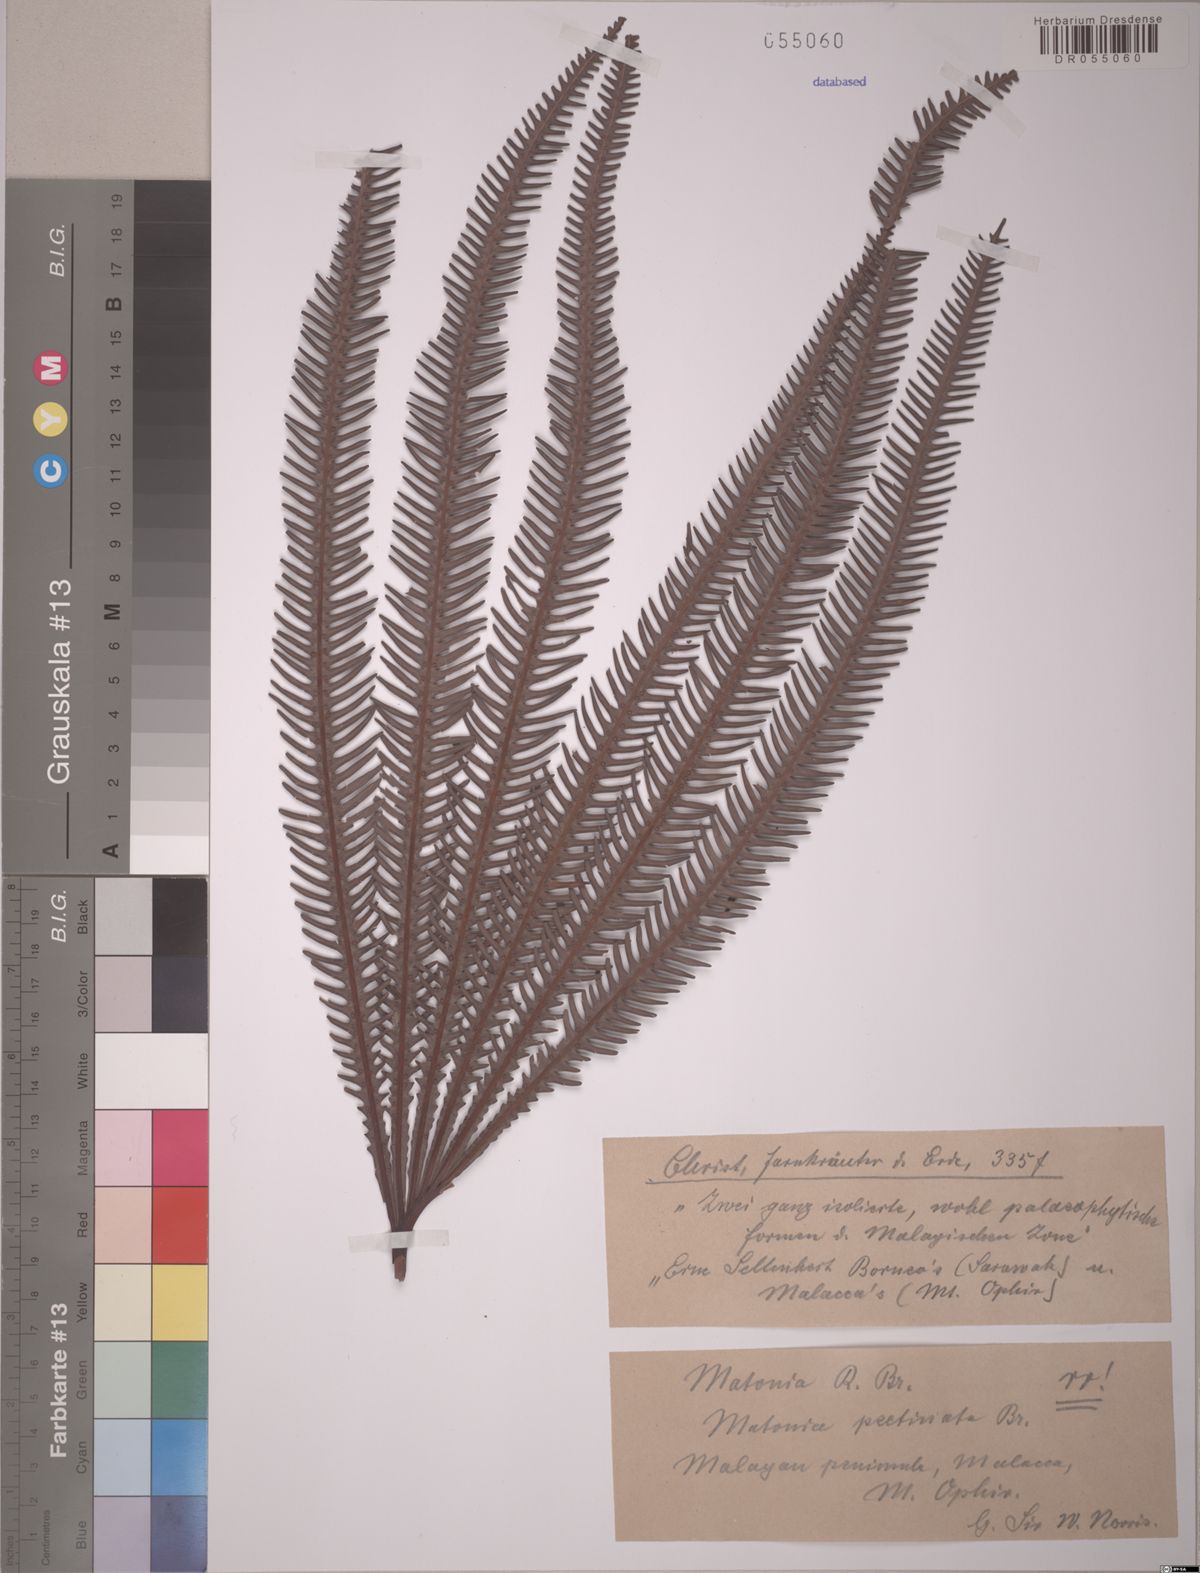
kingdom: Plantae
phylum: Tracheophyta
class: Polypodiopsida
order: Gleicheniales
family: Matoniaceae
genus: Matonia
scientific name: Matonia pectinata
